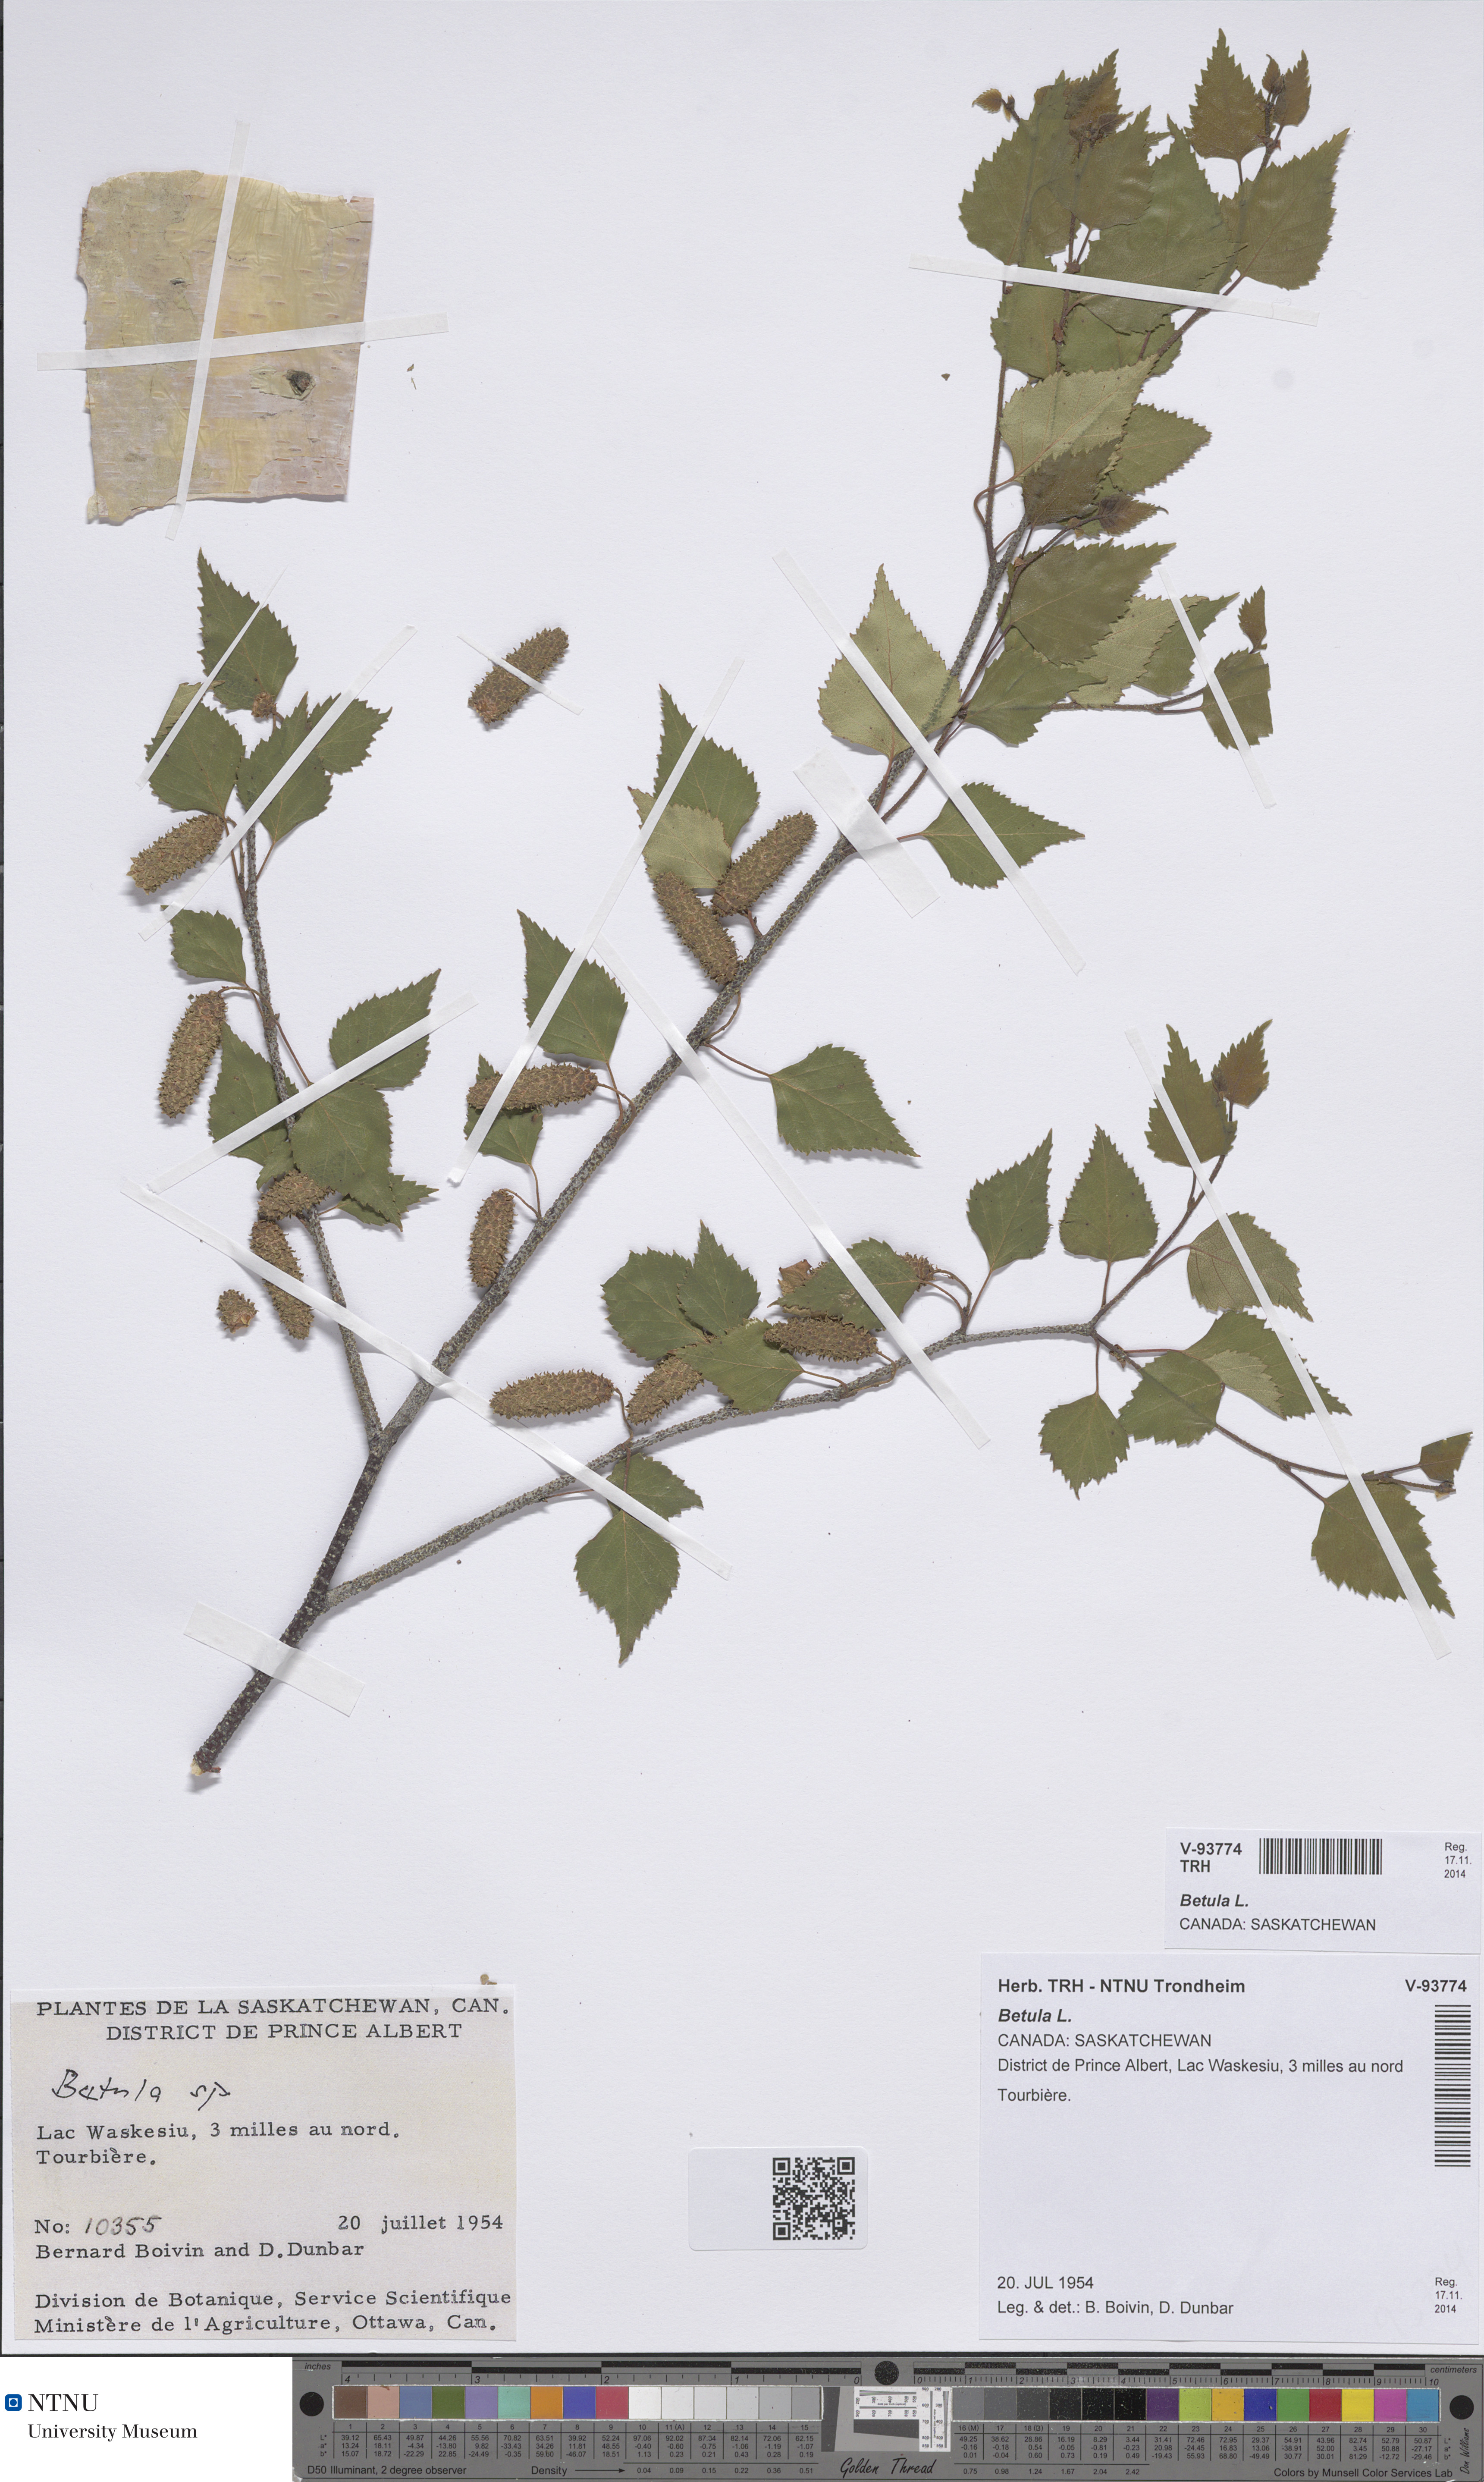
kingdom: Plantae
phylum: Tracheophyta
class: Magnoliopsida
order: Fagales
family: Betulaceae
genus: Betula
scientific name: Betula
